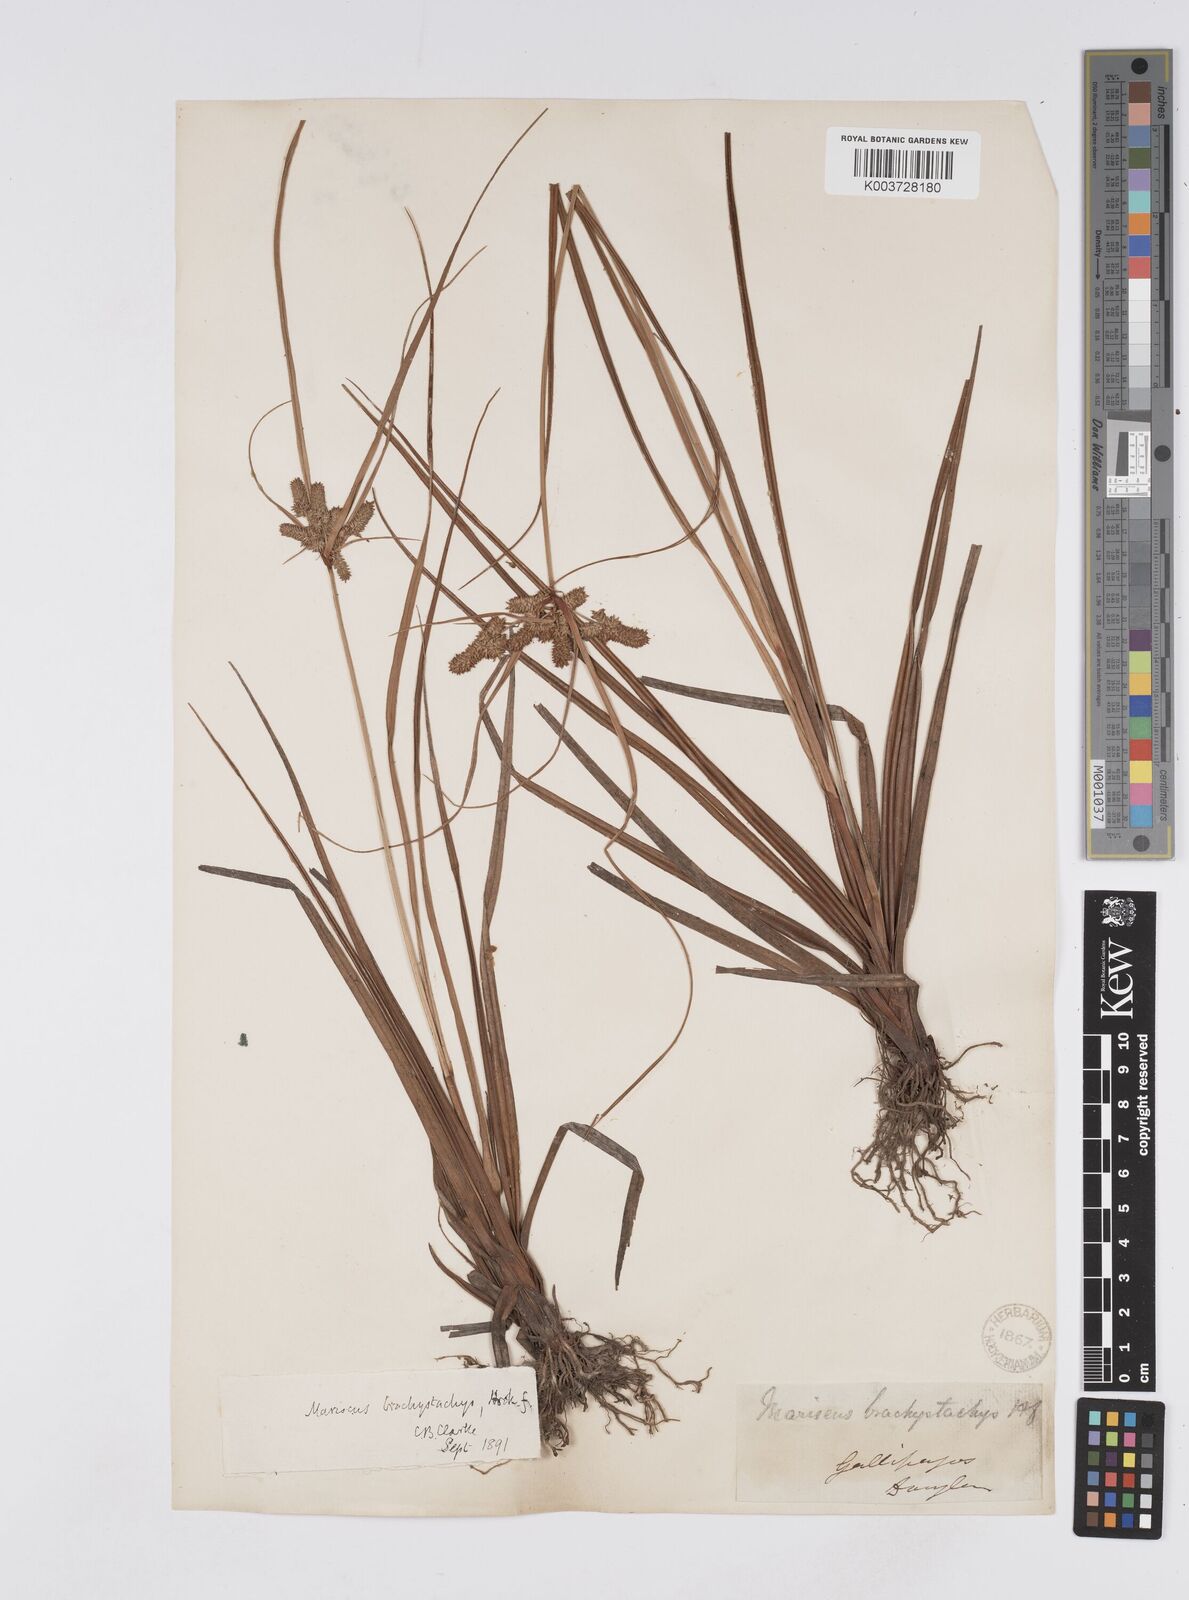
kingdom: Plantae
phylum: Tracheophyta
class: Liliopsida
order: Poales
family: Cyperaceae
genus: Cyperus
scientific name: Cyperus anderssonii
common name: Andersson's sedge
